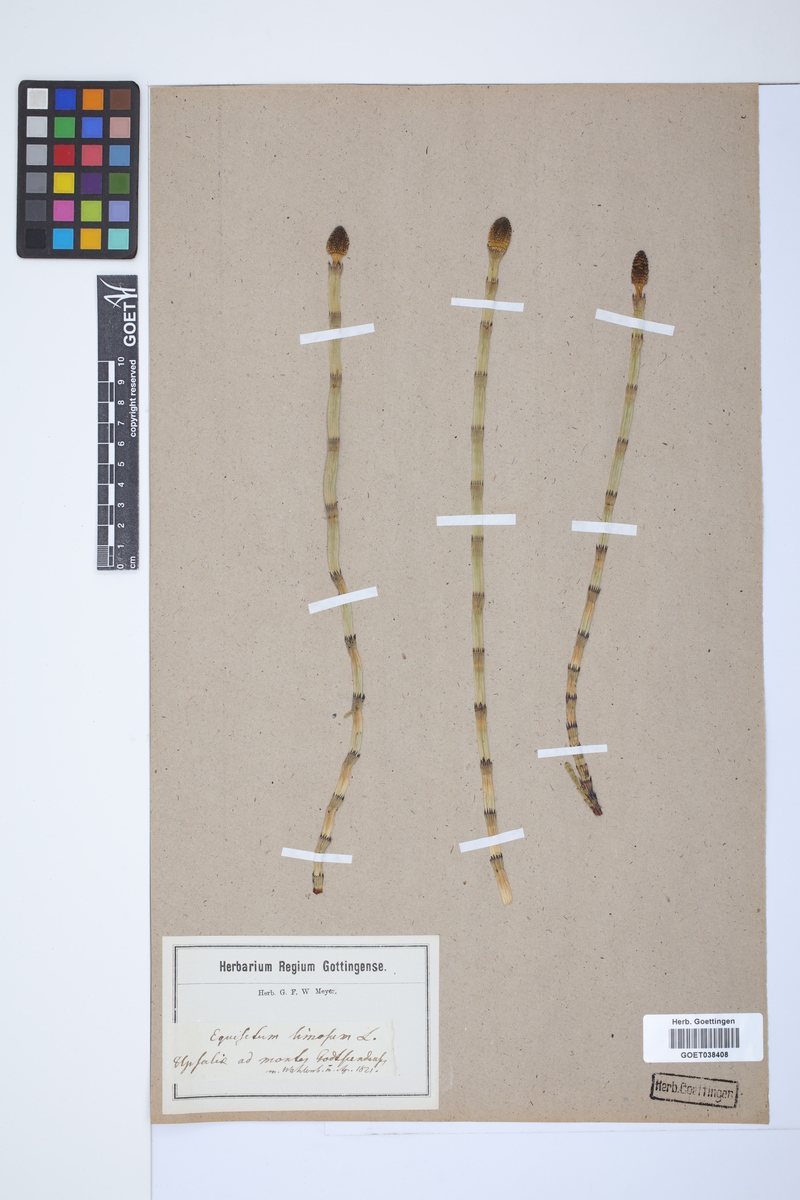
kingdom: Plantae
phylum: Tracheophyta
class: Polypodiopsida
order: Equisetales
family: Equisetaceae
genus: Equisetum
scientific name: Equisetum fluviatile
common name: Water horsetail
